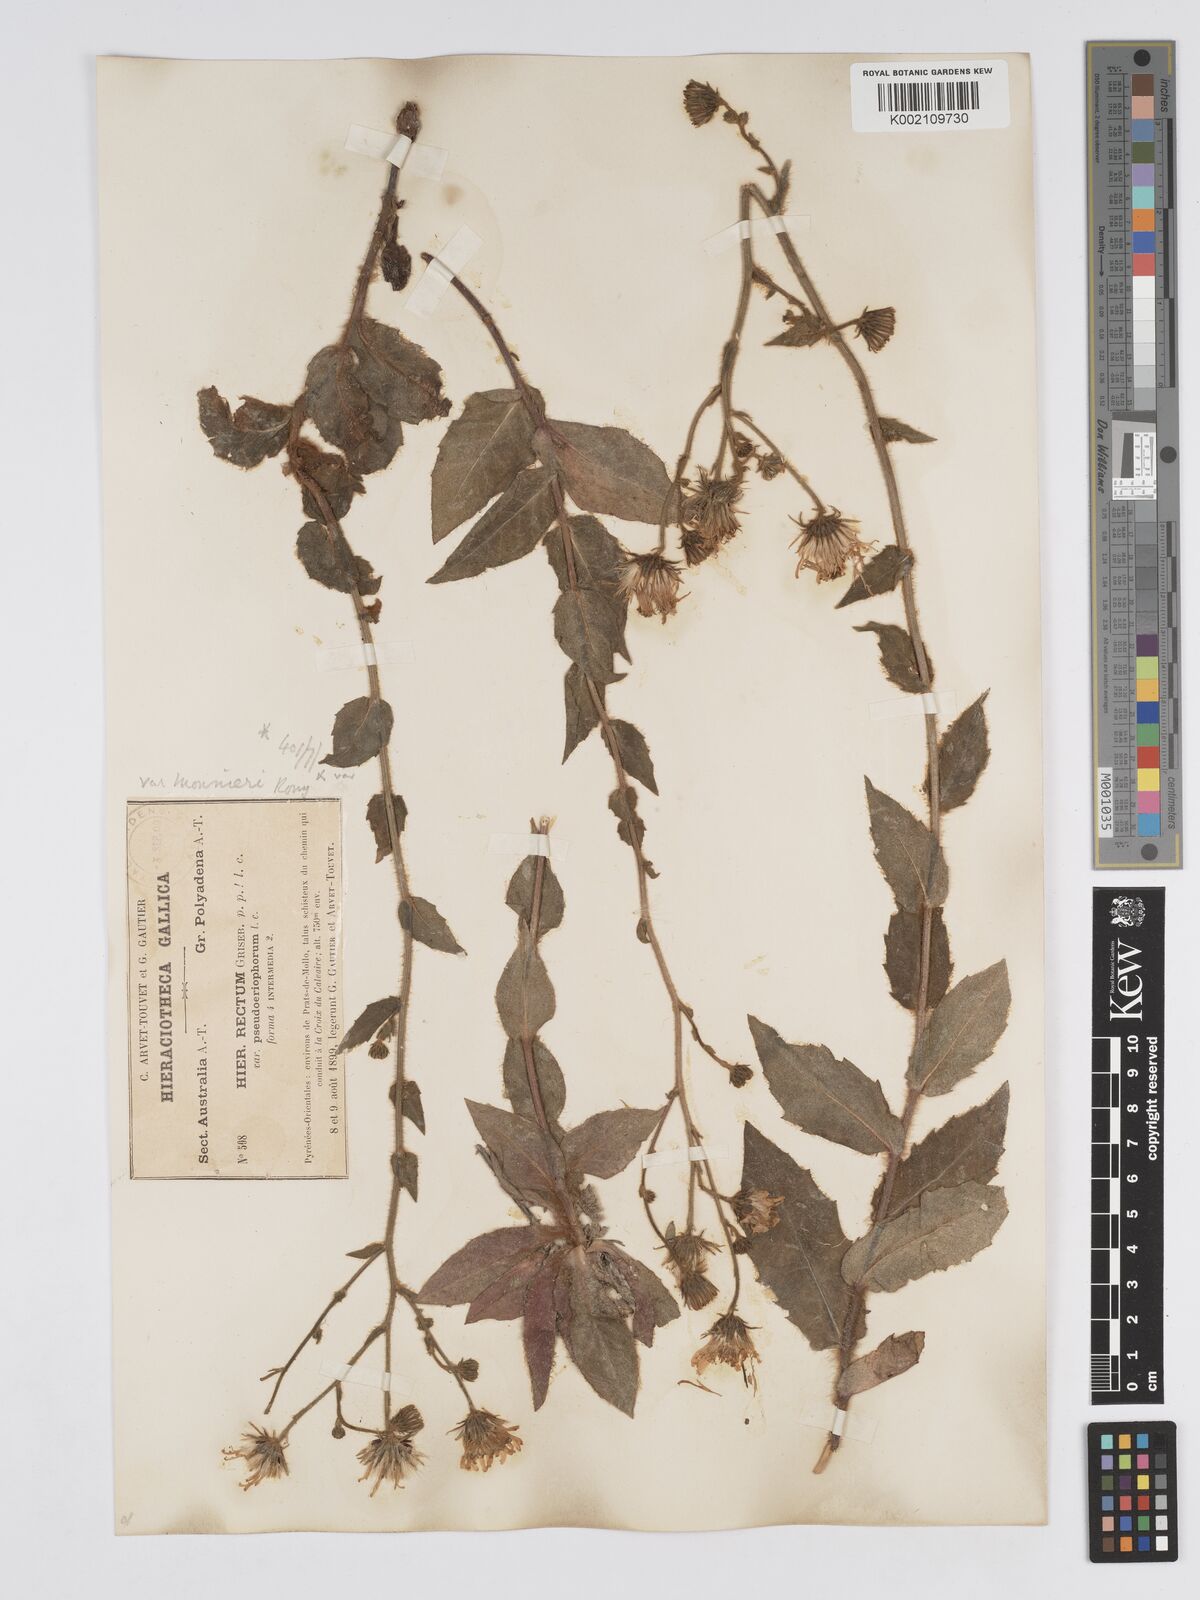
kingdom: Plantae
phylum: Tracheophyta
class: Magnoliopsida
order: Asterales
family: Asteraceae
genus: Hieracium
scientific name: Hieracium patens
